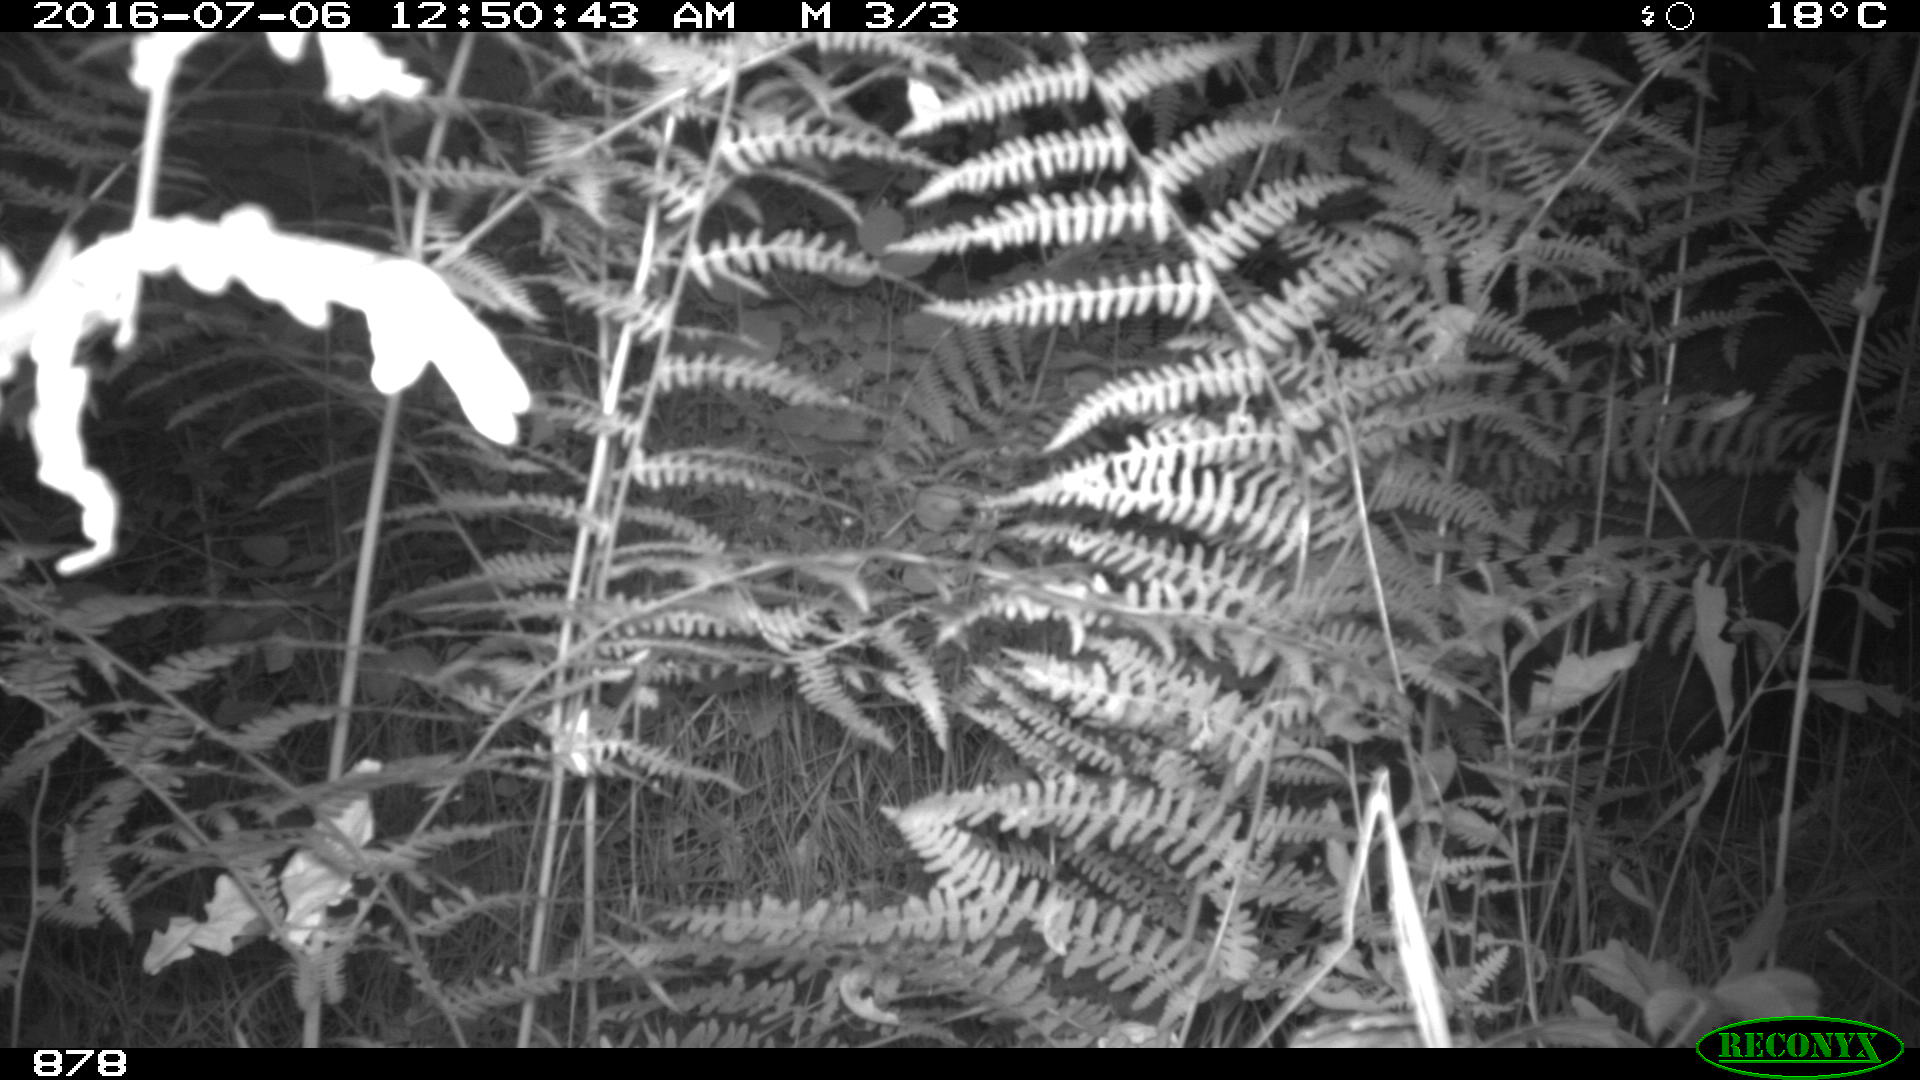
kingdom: Animalia
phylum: Chordata
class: Mammalia
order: Artiodactyla
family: Suidae
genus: Sus
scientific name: Sus scrofa
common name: Wild boar
